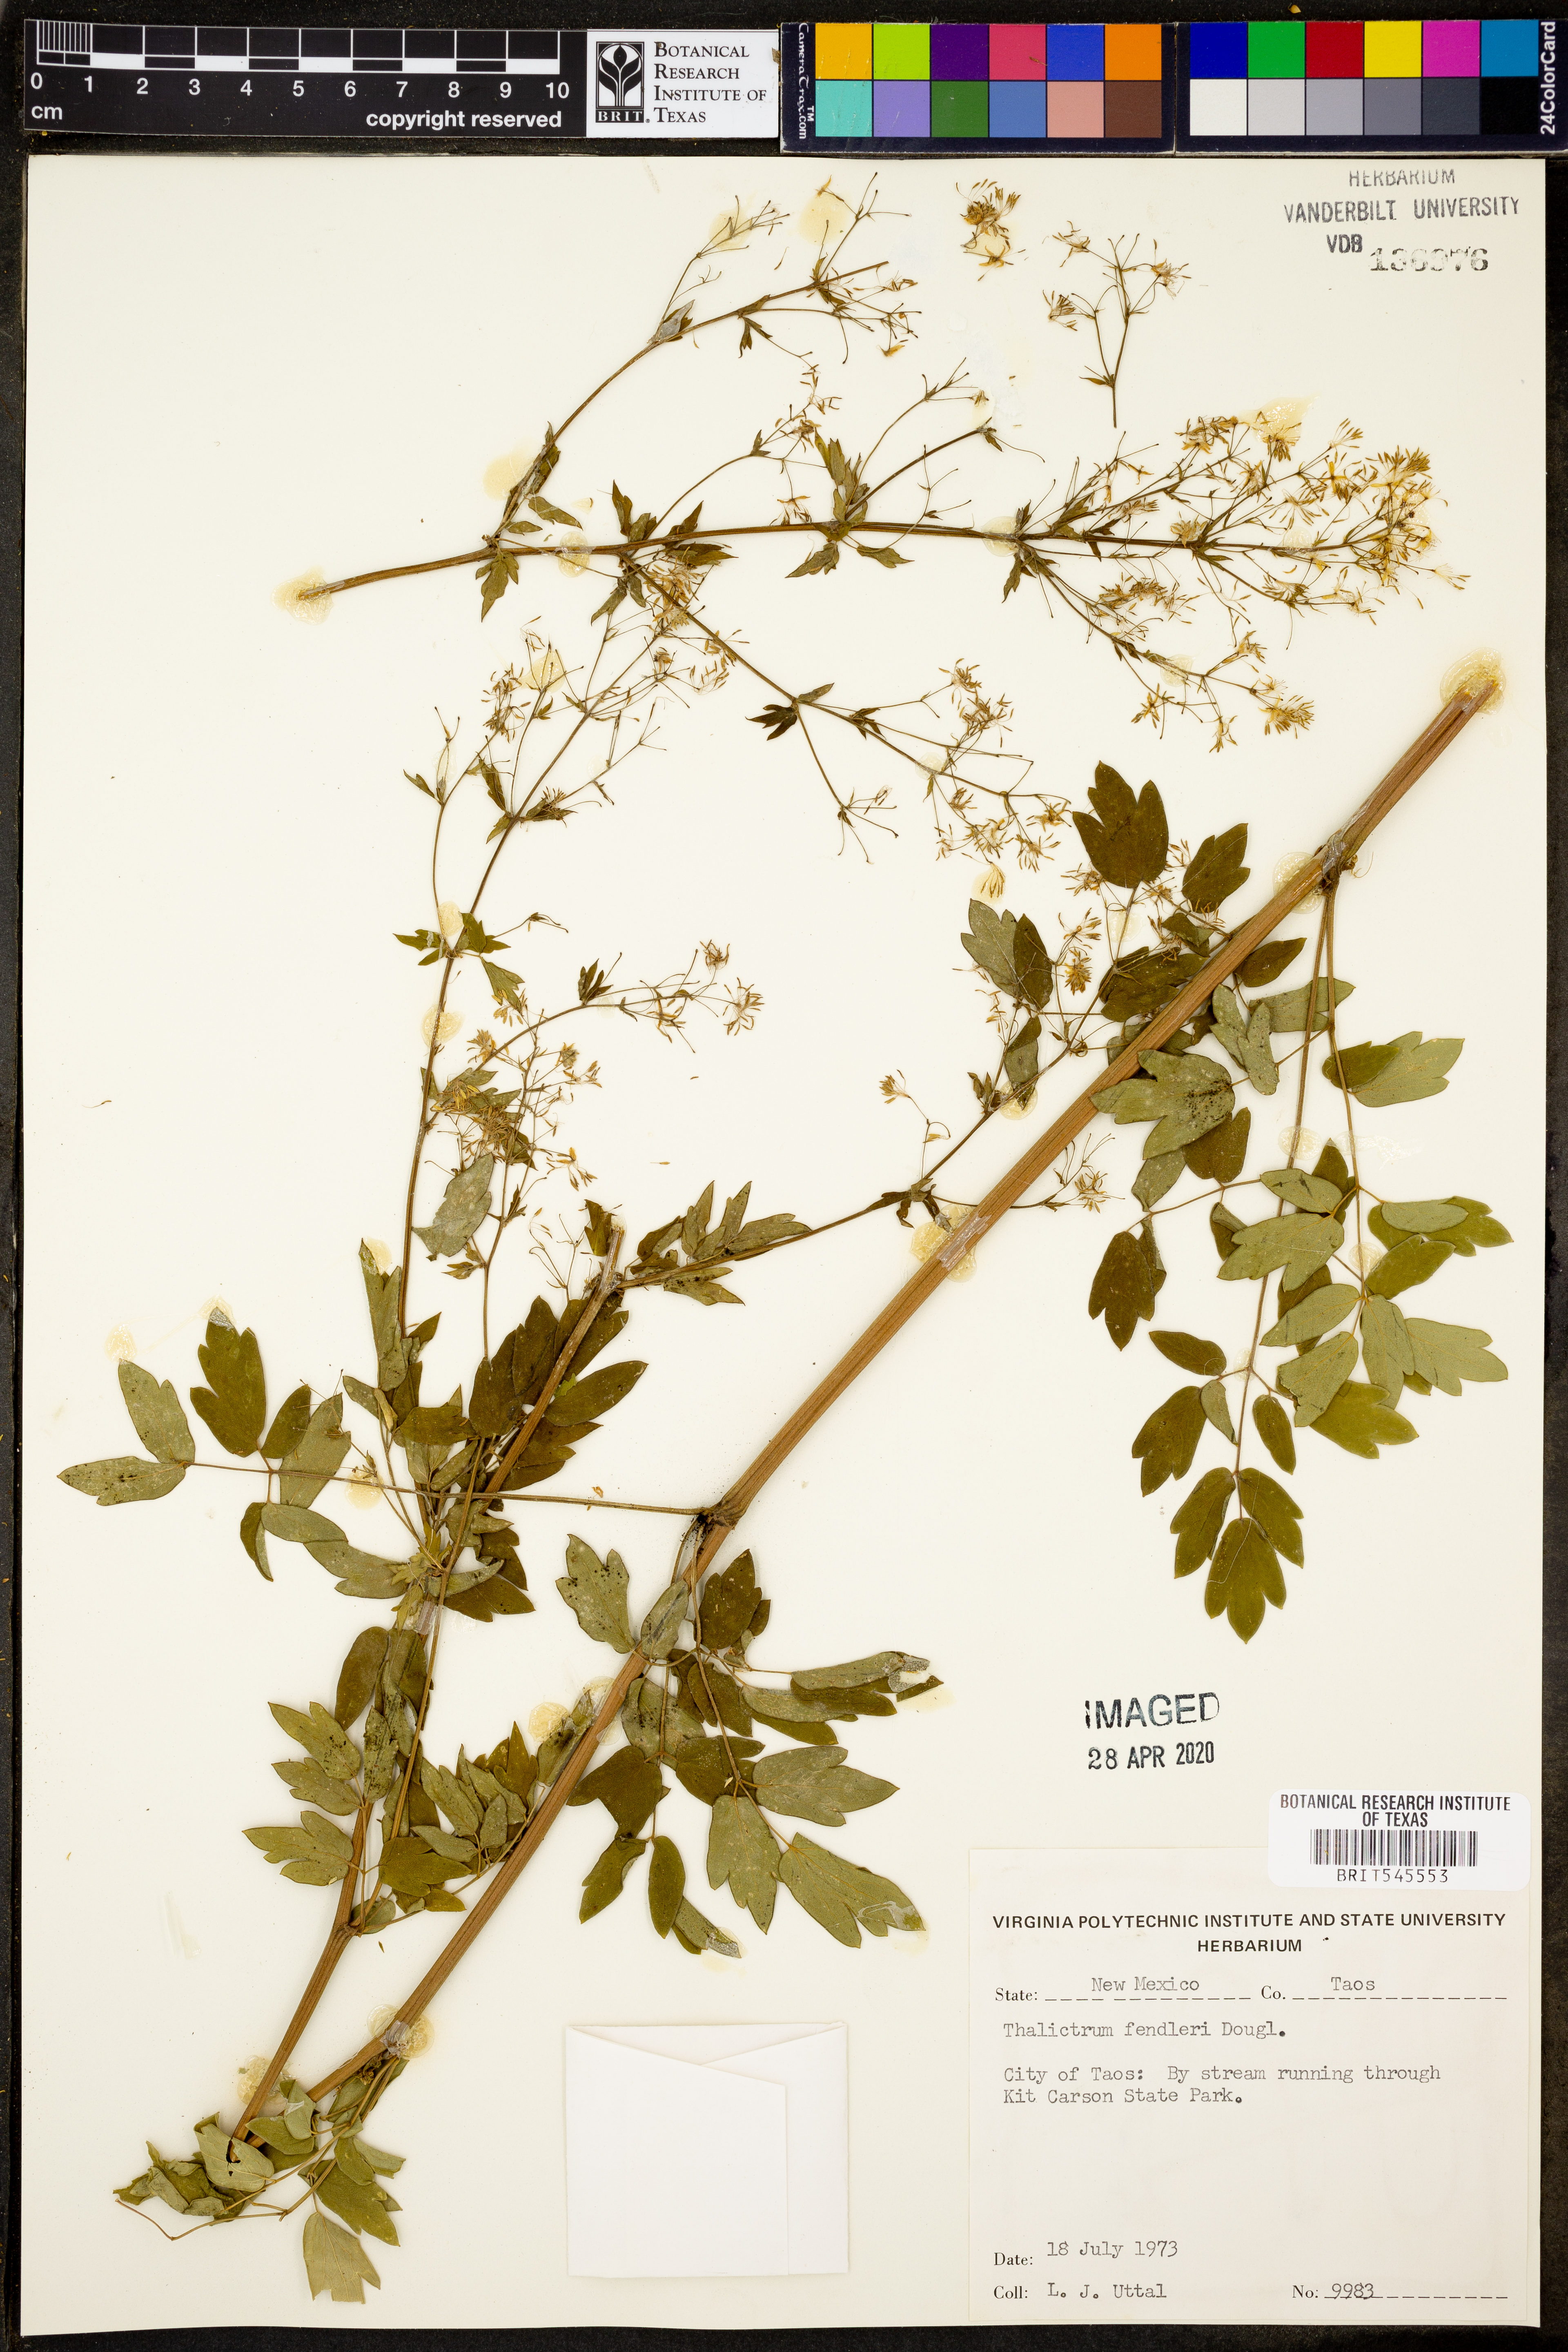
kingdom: Plantae
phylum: Tracheophyta
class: Magnoliopsida
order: Ranunculales
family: Ranunculaceae
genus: Thalictrum
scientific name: Thalictrum fendleri
